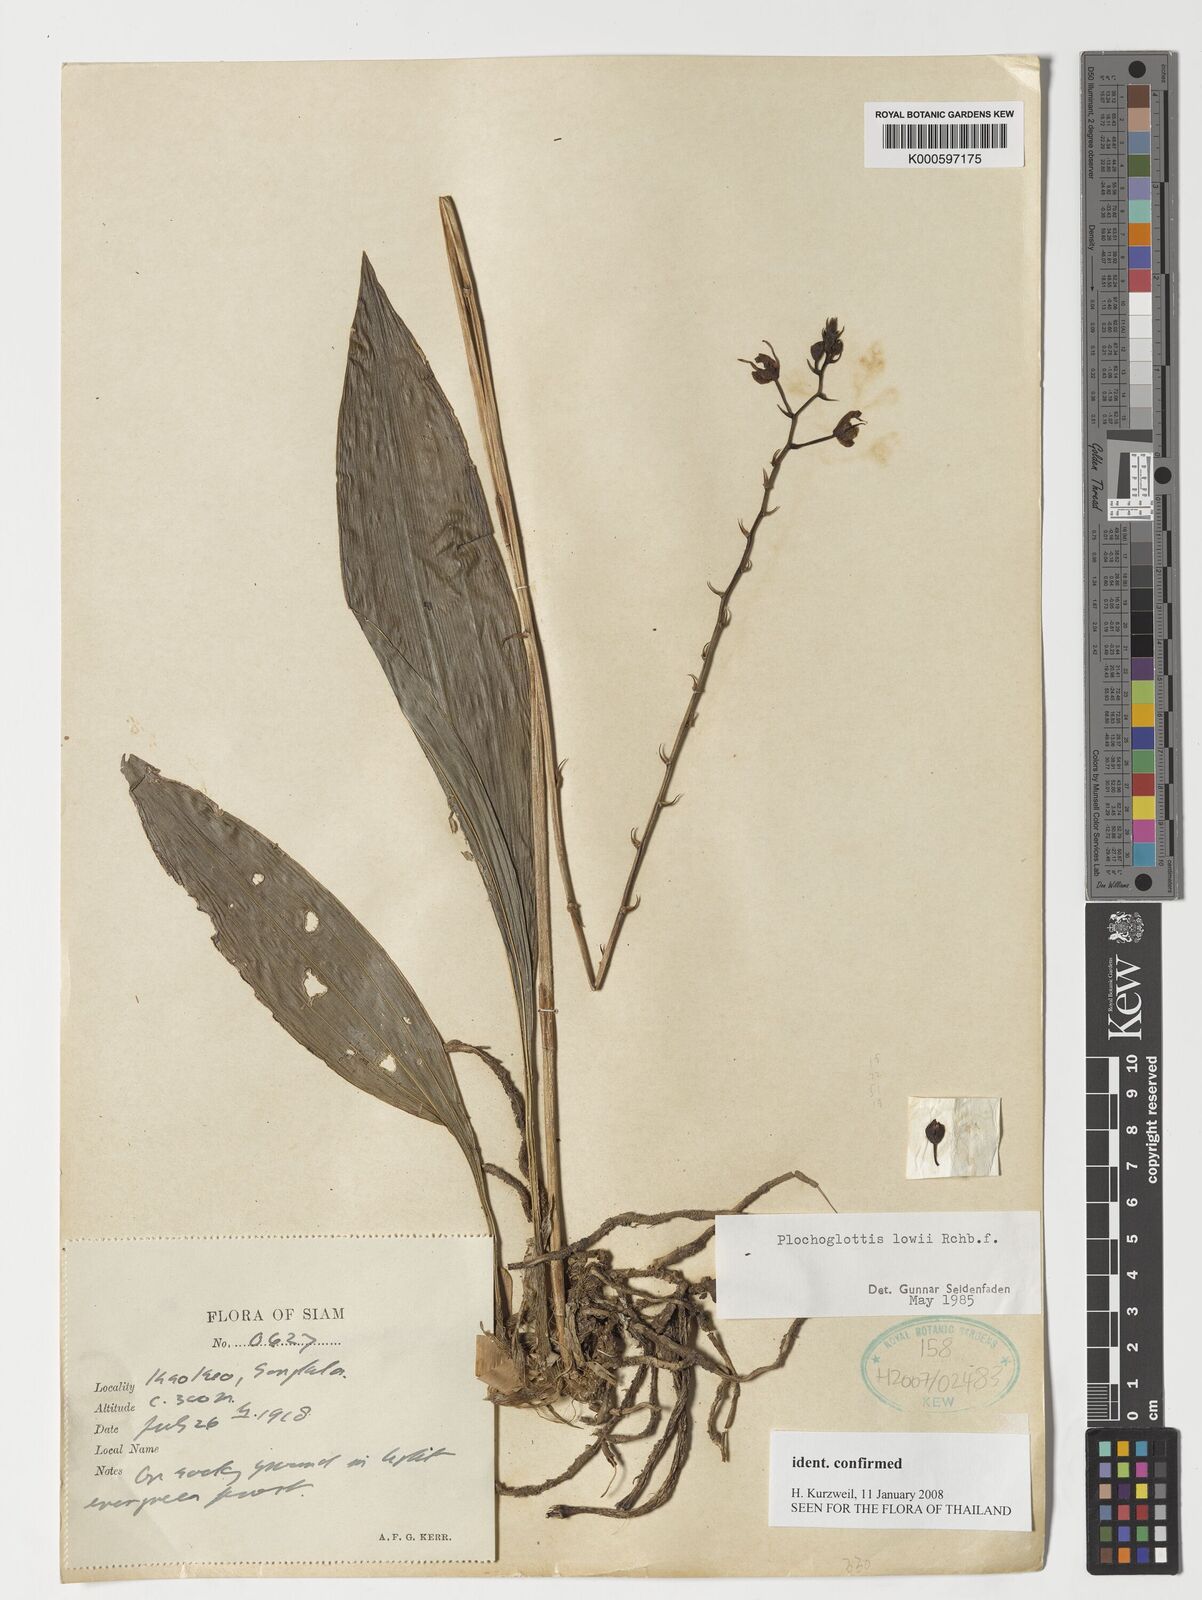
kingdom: Plantae
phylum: Tracheophyta
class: Liliopsida
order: Asparagales
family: Orchidaceae
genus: Plocoglottis
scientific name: Plocoglottis lowii
